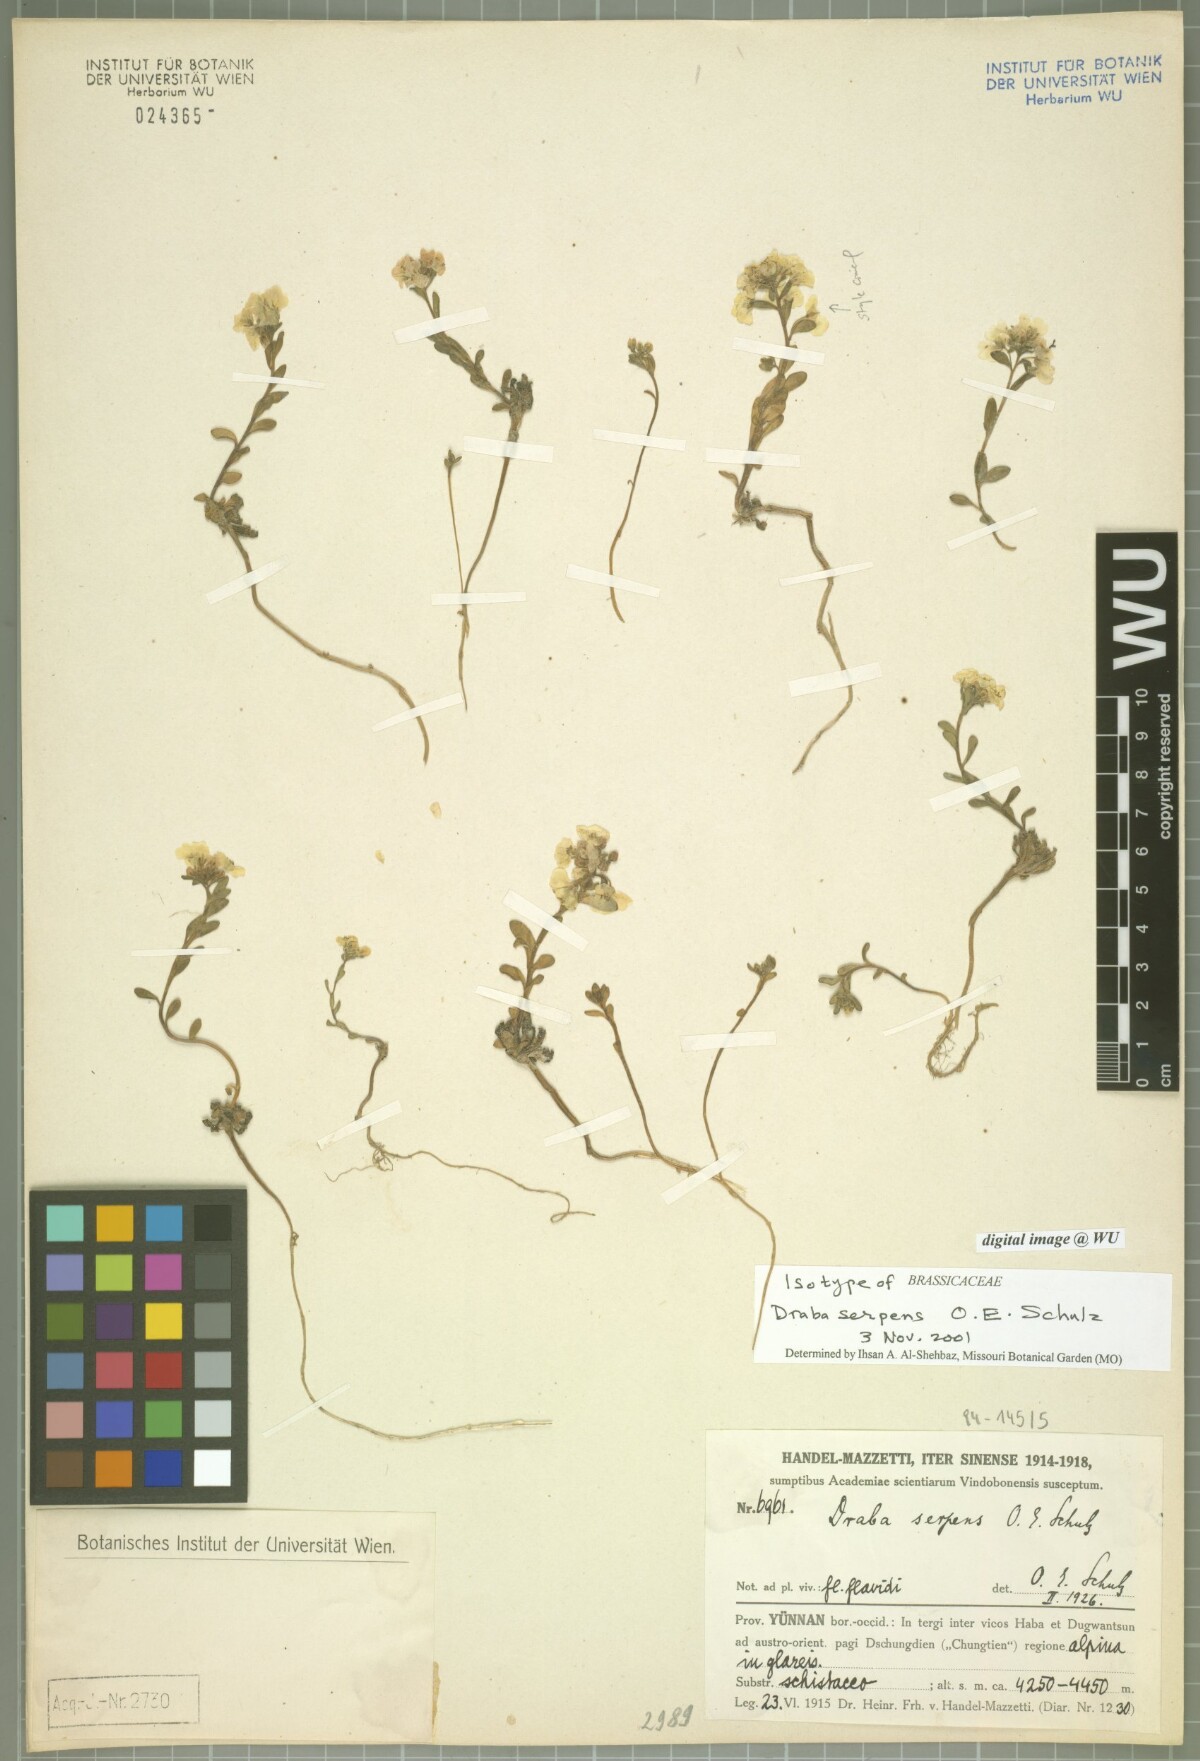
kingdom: Plantae
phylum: Tracheophyta
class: Magnoliopsida
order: Brassicales
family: Brassicaceae
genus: Hemilophia
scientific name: Hemilophia serpens
